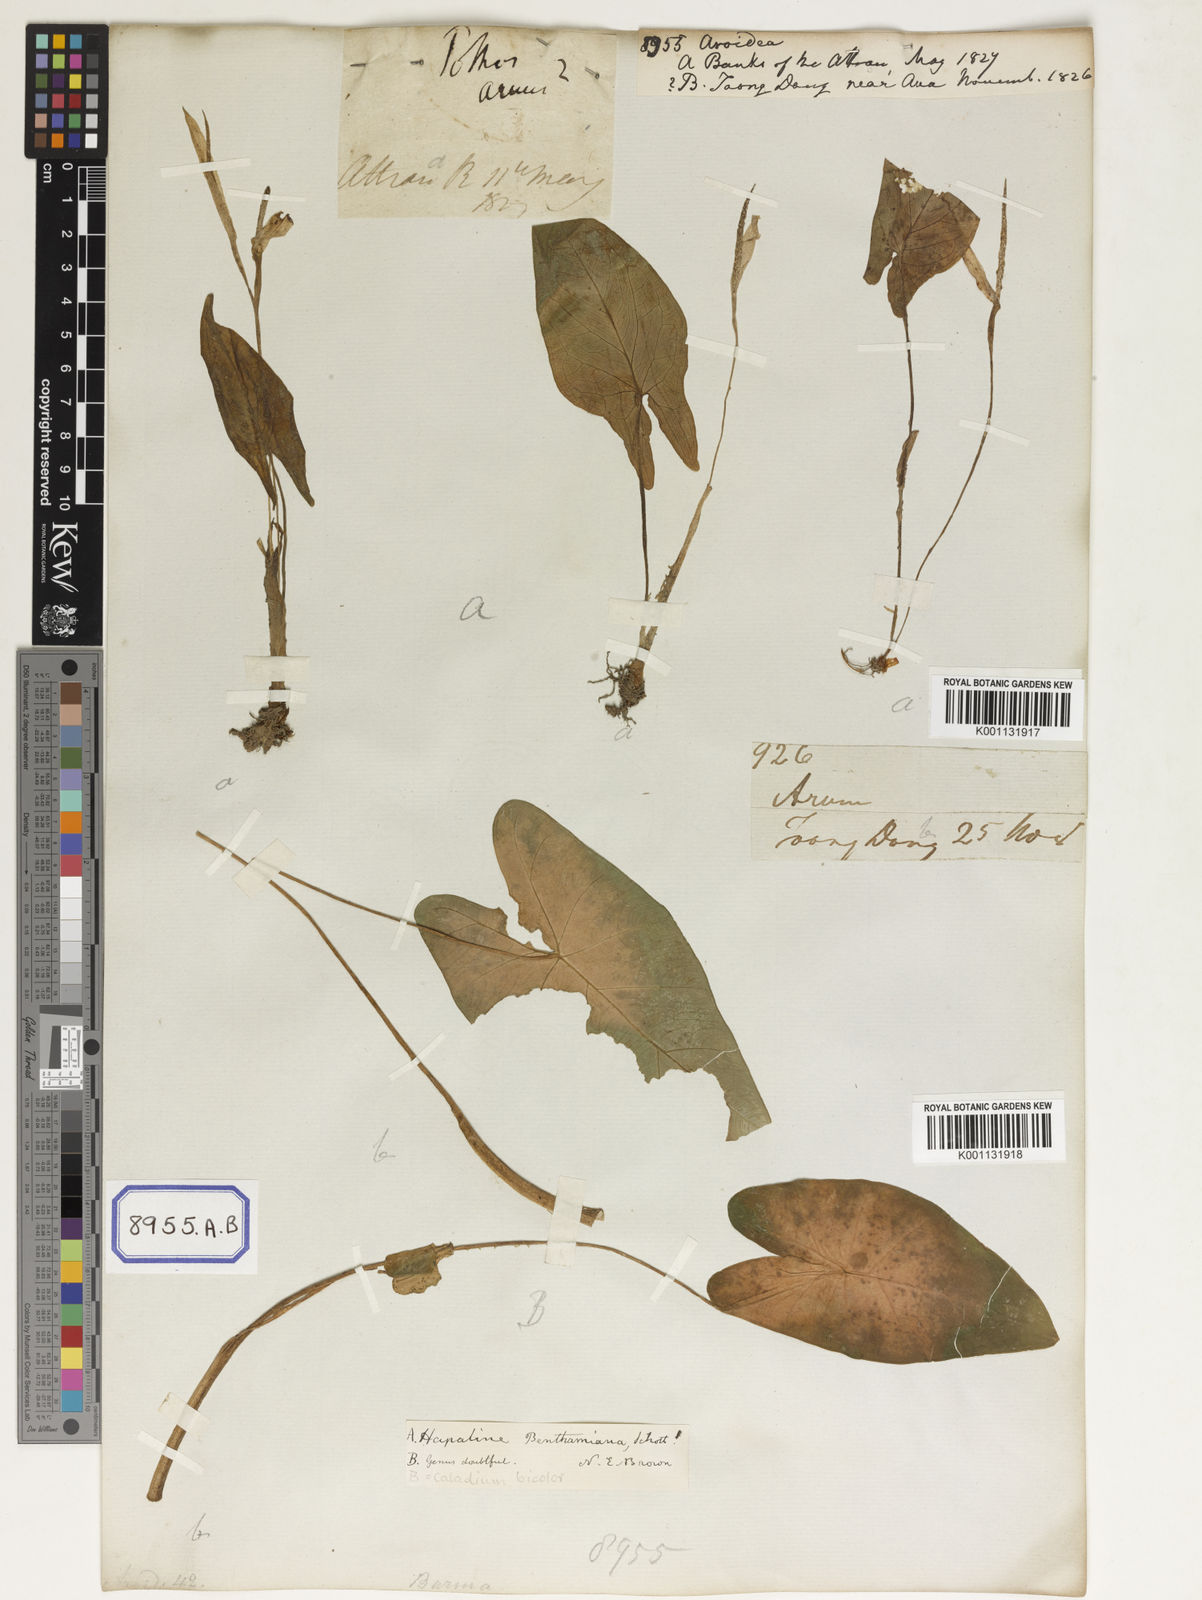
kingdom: Plantae
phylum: Tracheophyta
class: Liliopsida
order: Alismatales
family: Araceae
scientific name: Araceae
